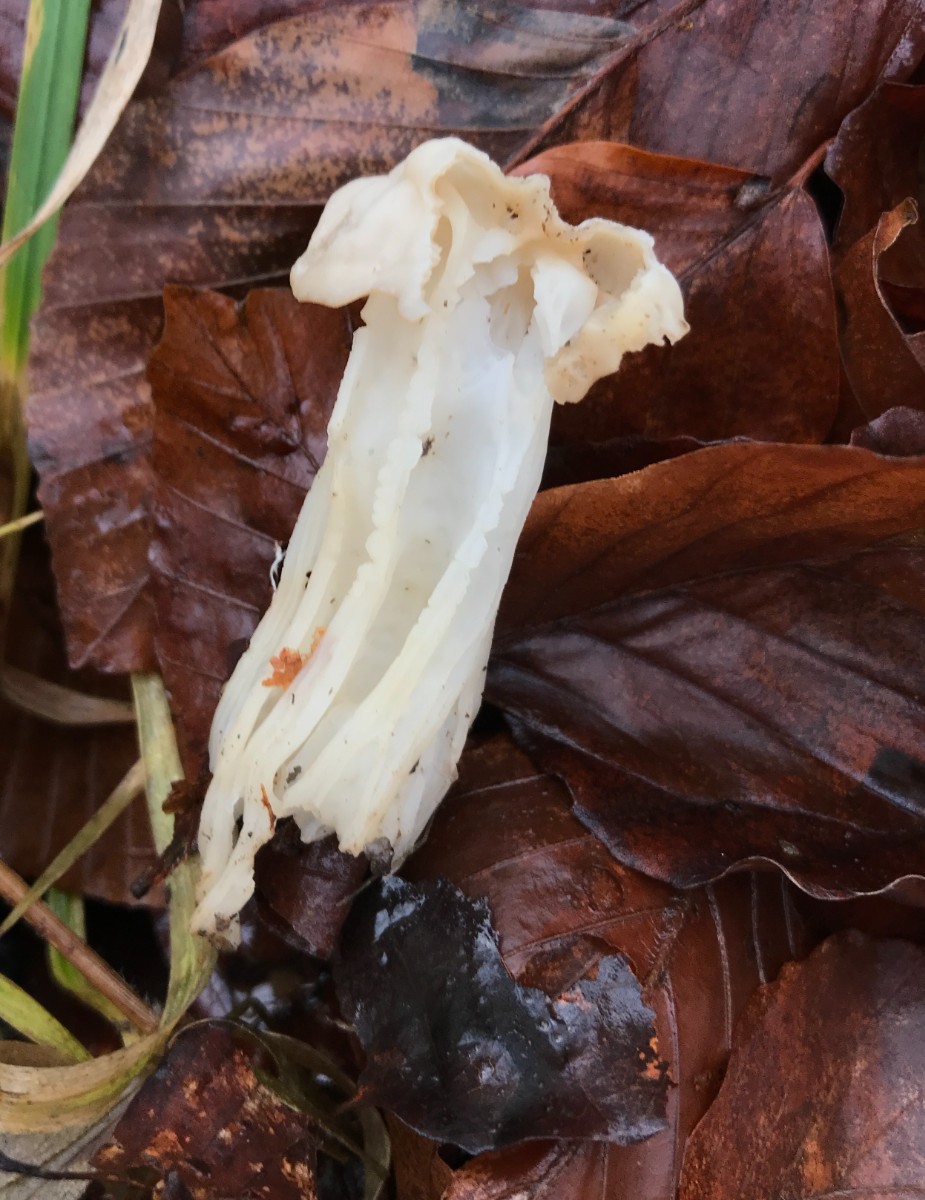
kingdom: Fungi
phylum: Ascomycota
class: Pezizomycetes
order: Pezizales
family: Helvellaceae
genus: Helvella
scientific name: Helvella crispa
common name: kruset foldhat
